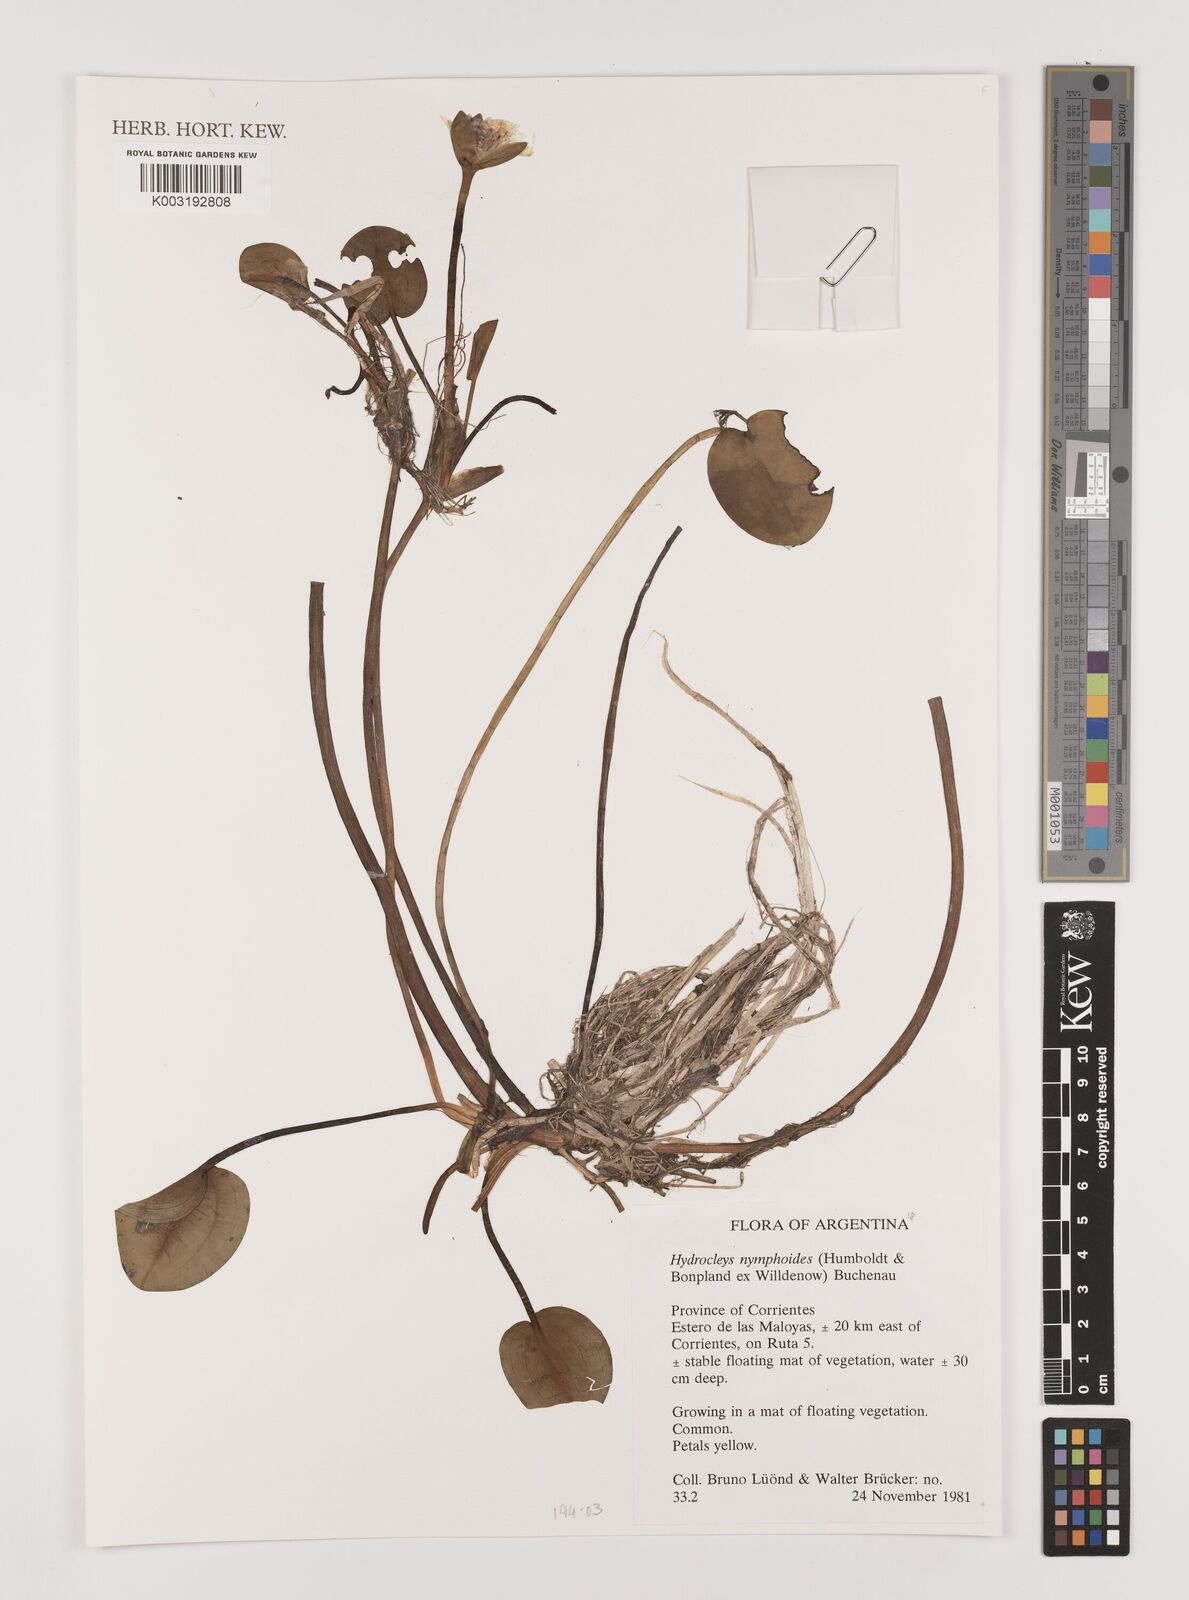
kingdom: Plantae
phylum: Tracheophyta
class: Liliopsida
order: Alismatales
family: Alismataceae
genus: Hydrocleys
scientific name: Hydrocleys nymphoides
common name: Water-poppy
